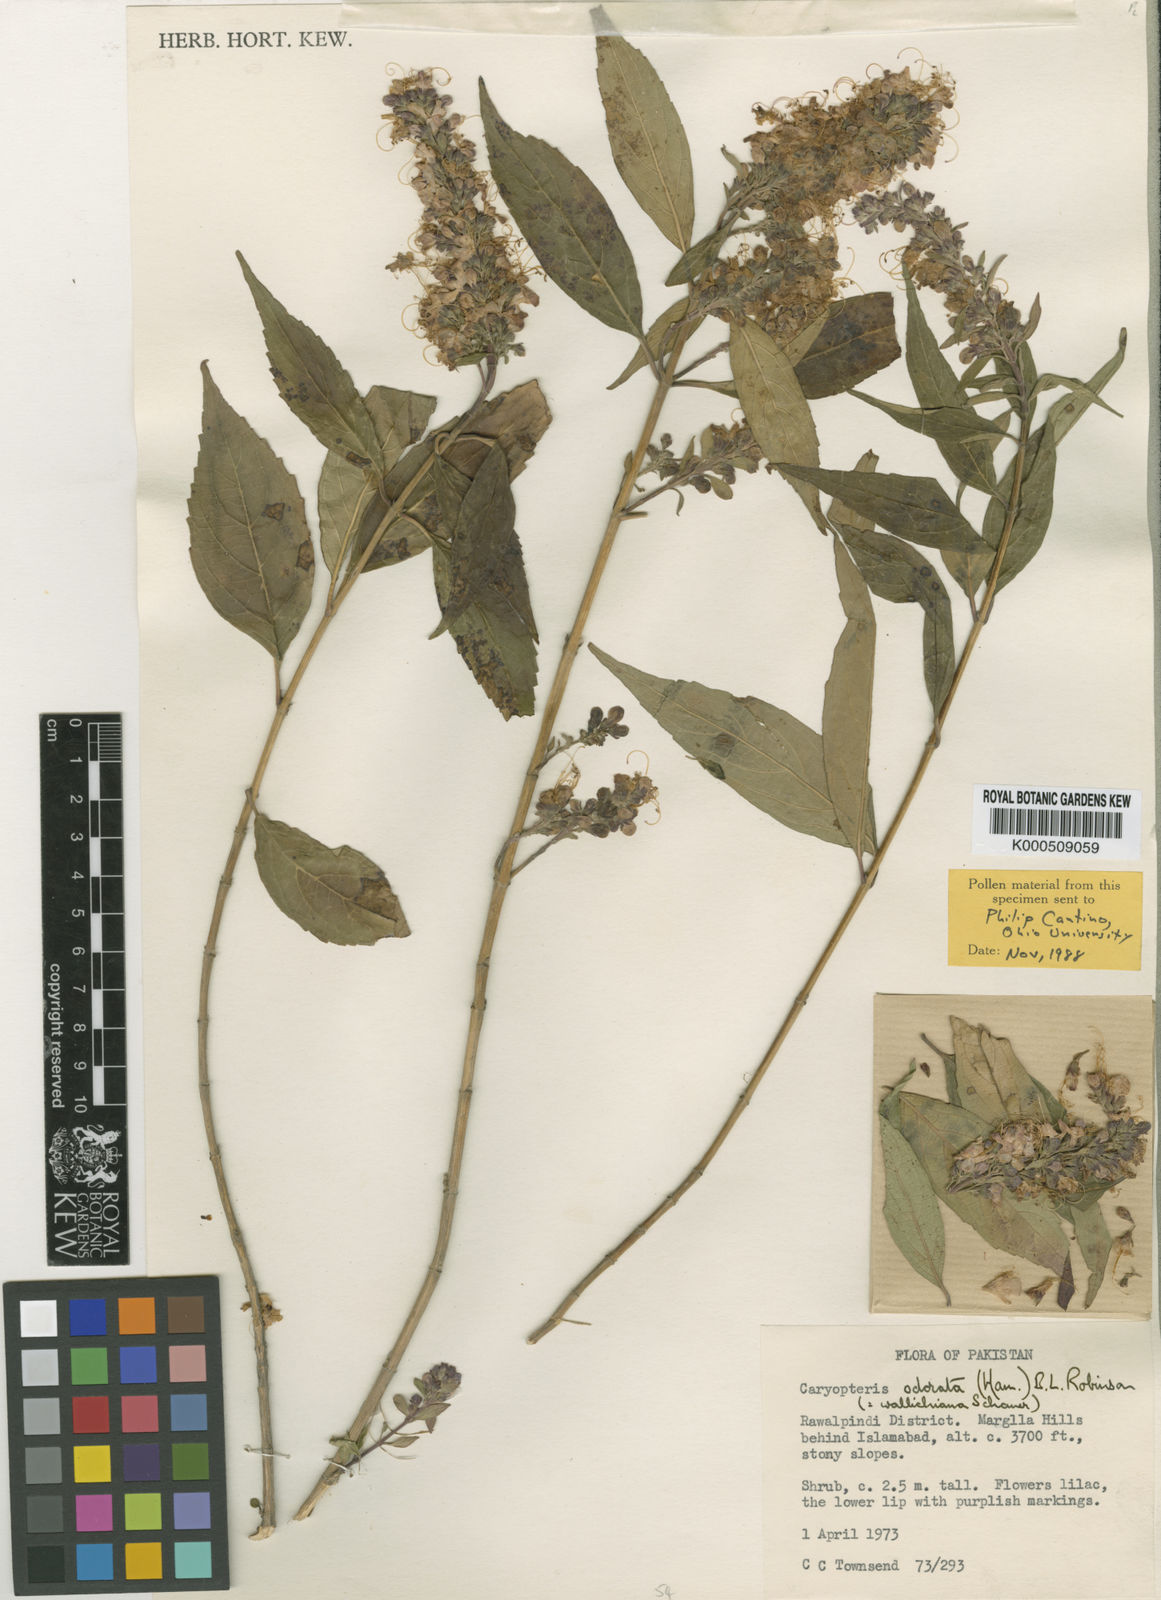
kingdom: Plantae
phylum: Tracheophyta
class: Magnoliopsida
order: Lamiales
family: Lamiaceae
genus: Pseudocaryopteris
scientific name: Pseudocaryopteris bicolor
